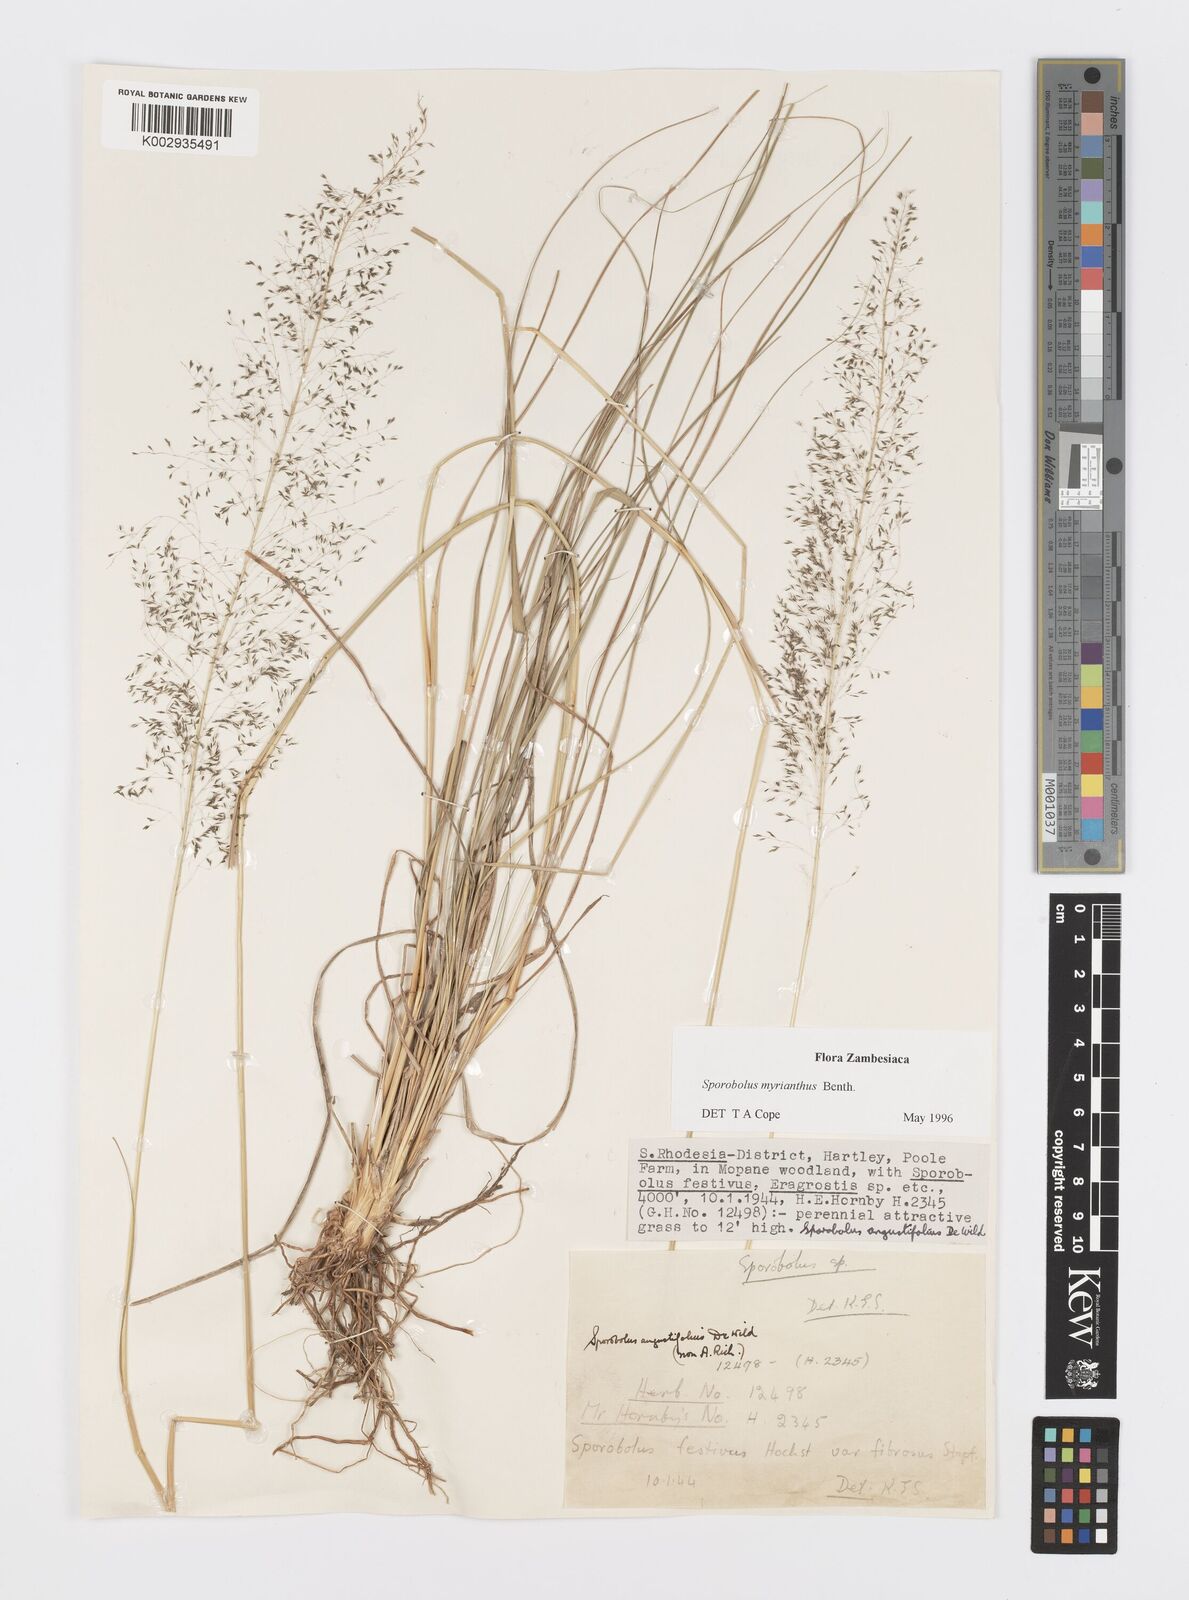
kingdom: Plantae
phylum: Tracheophyta
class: Liliopsida
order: Poales
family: Poaceae
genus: Sporobolus
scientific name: Sporobolus myrianthus
